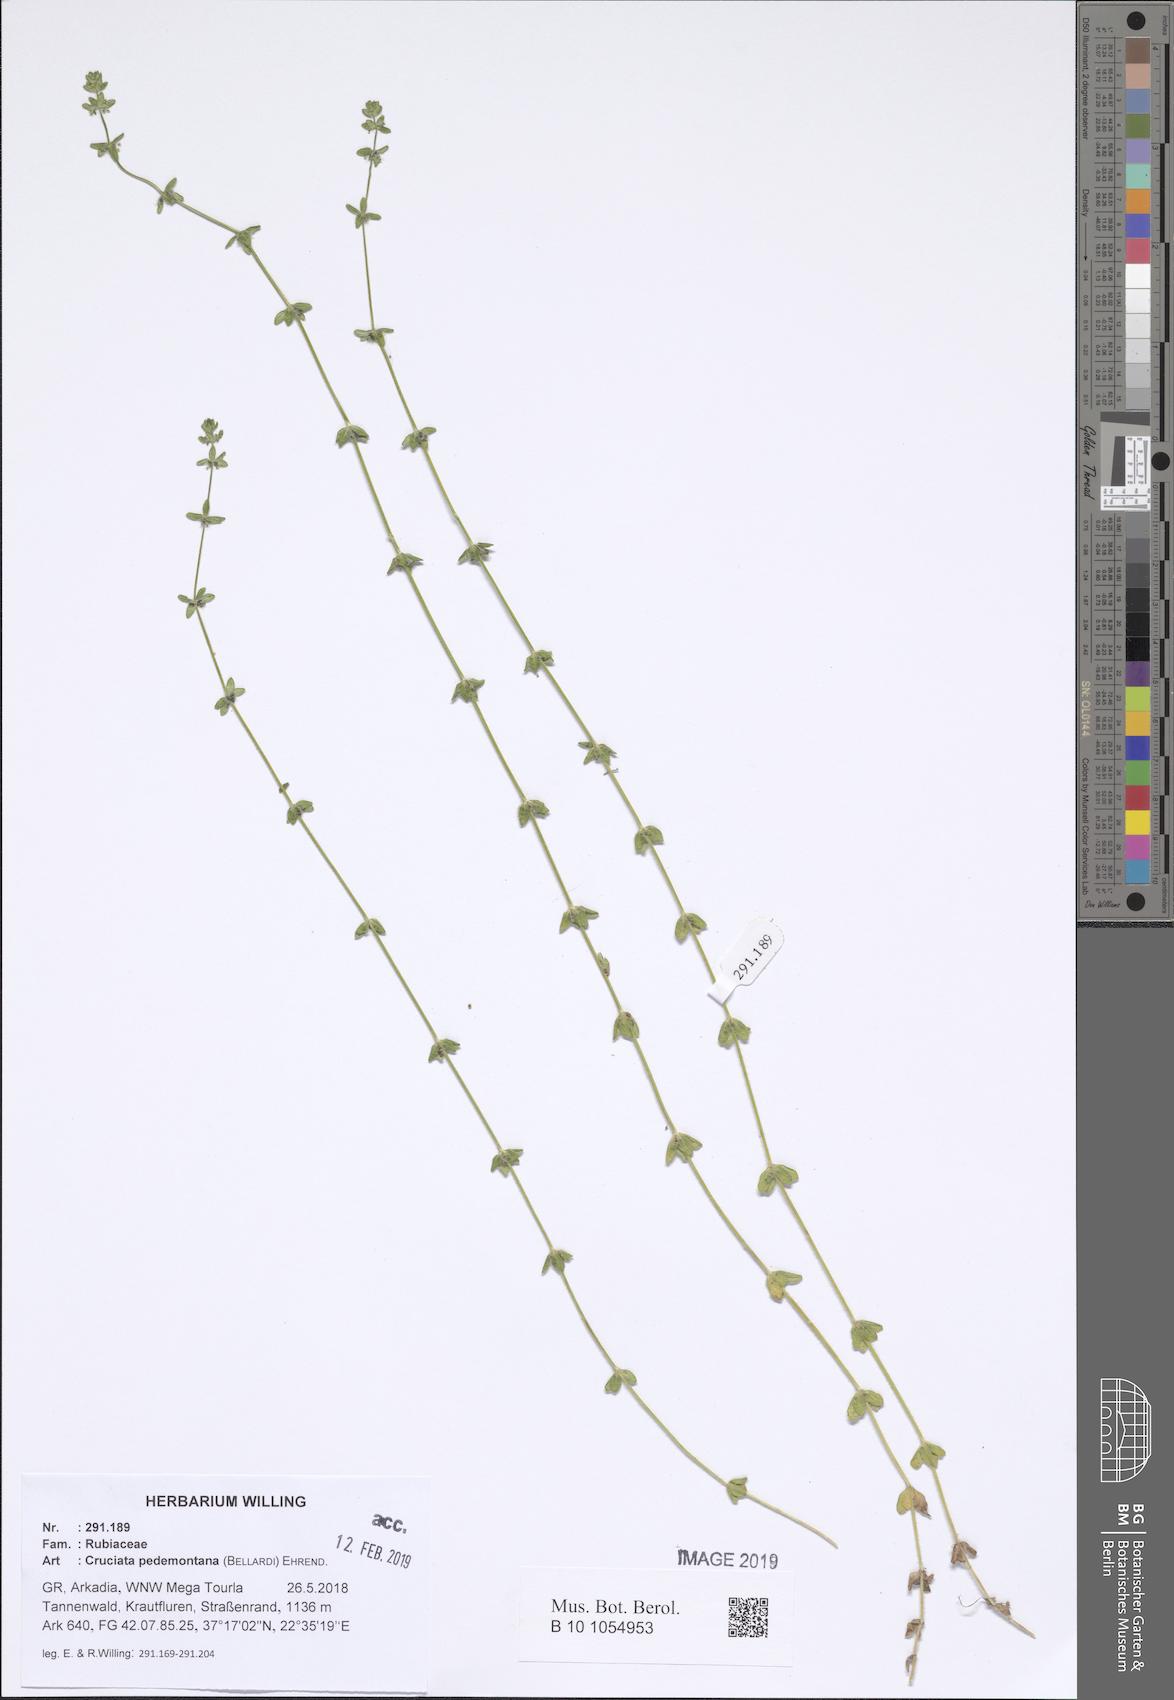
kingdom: Plantae
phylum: Tracheophyta
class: Magnoliopsida
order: Gentianales
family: Rubiaceae
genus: Cruciata
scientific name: Cruciata pedemontana
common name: Piedmont bedstraw
